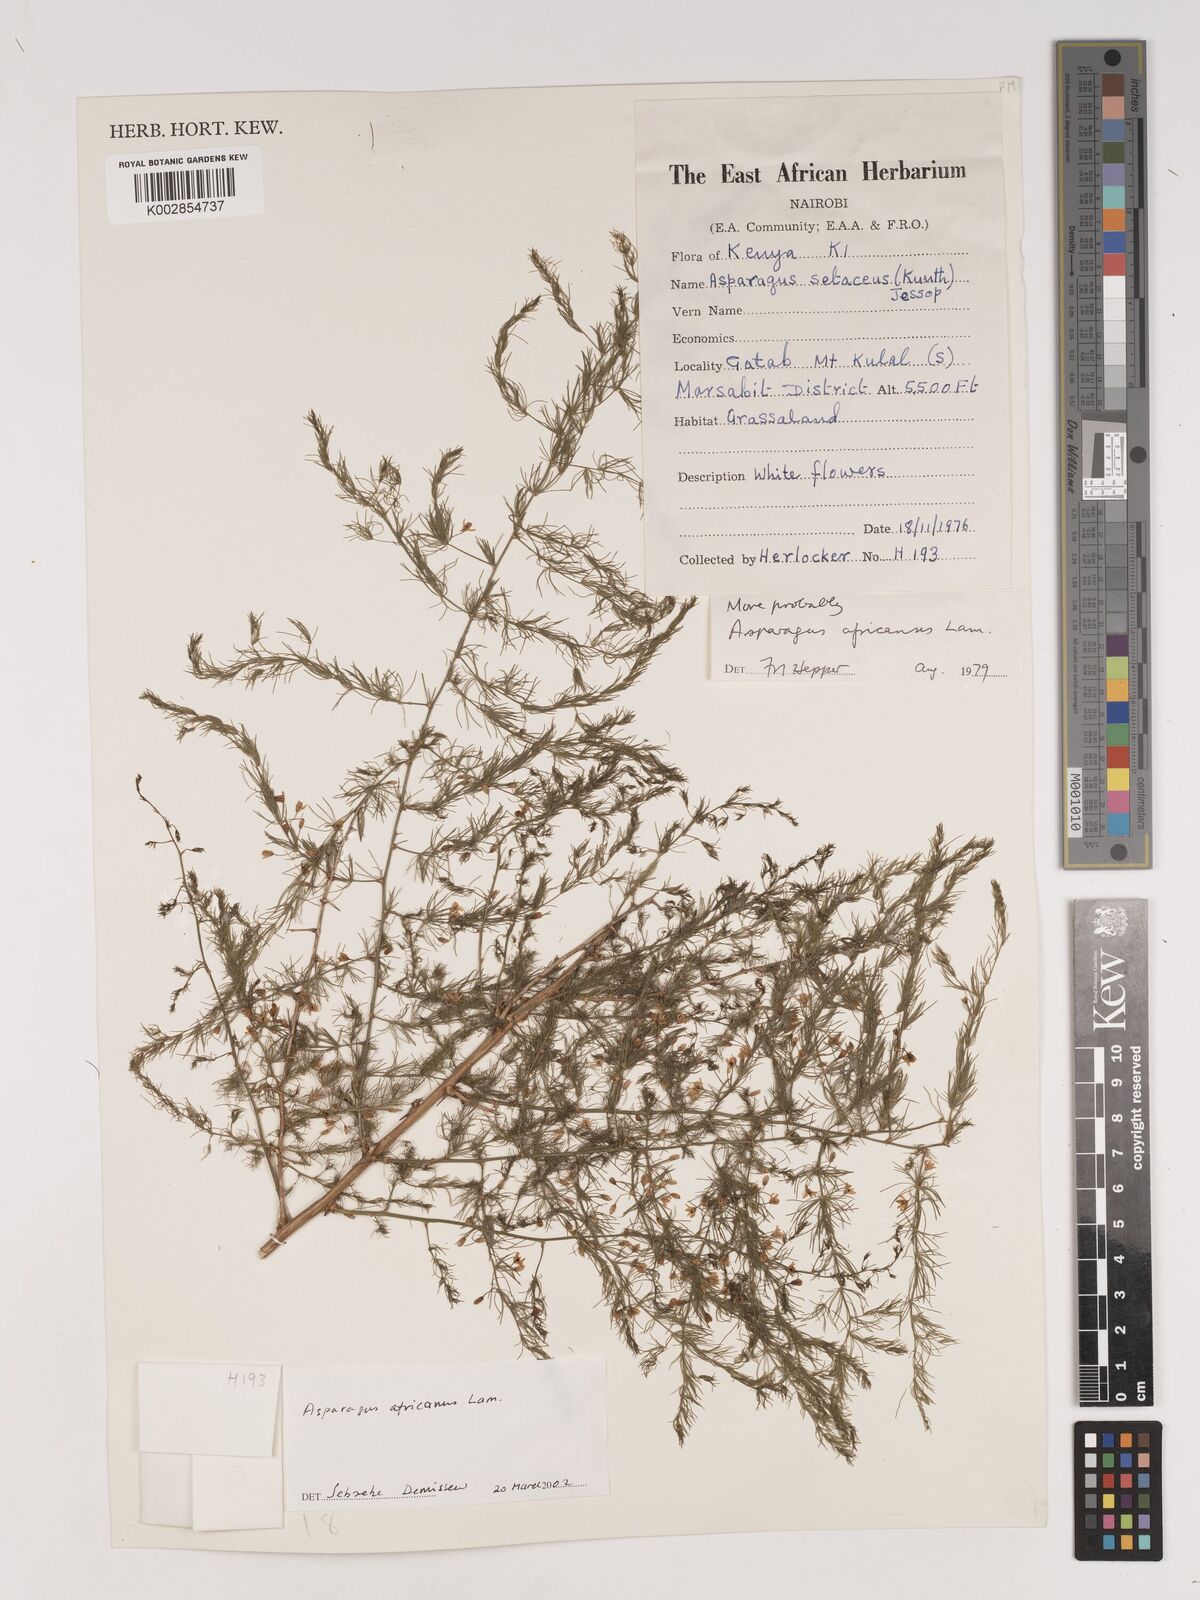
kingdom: Plantae
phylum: Tracheophyta
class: Liliopsida
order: Asparagales
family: Asparagaceae
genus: Asparagus
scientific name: Asparagus africanus
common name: Asparagus-fern
